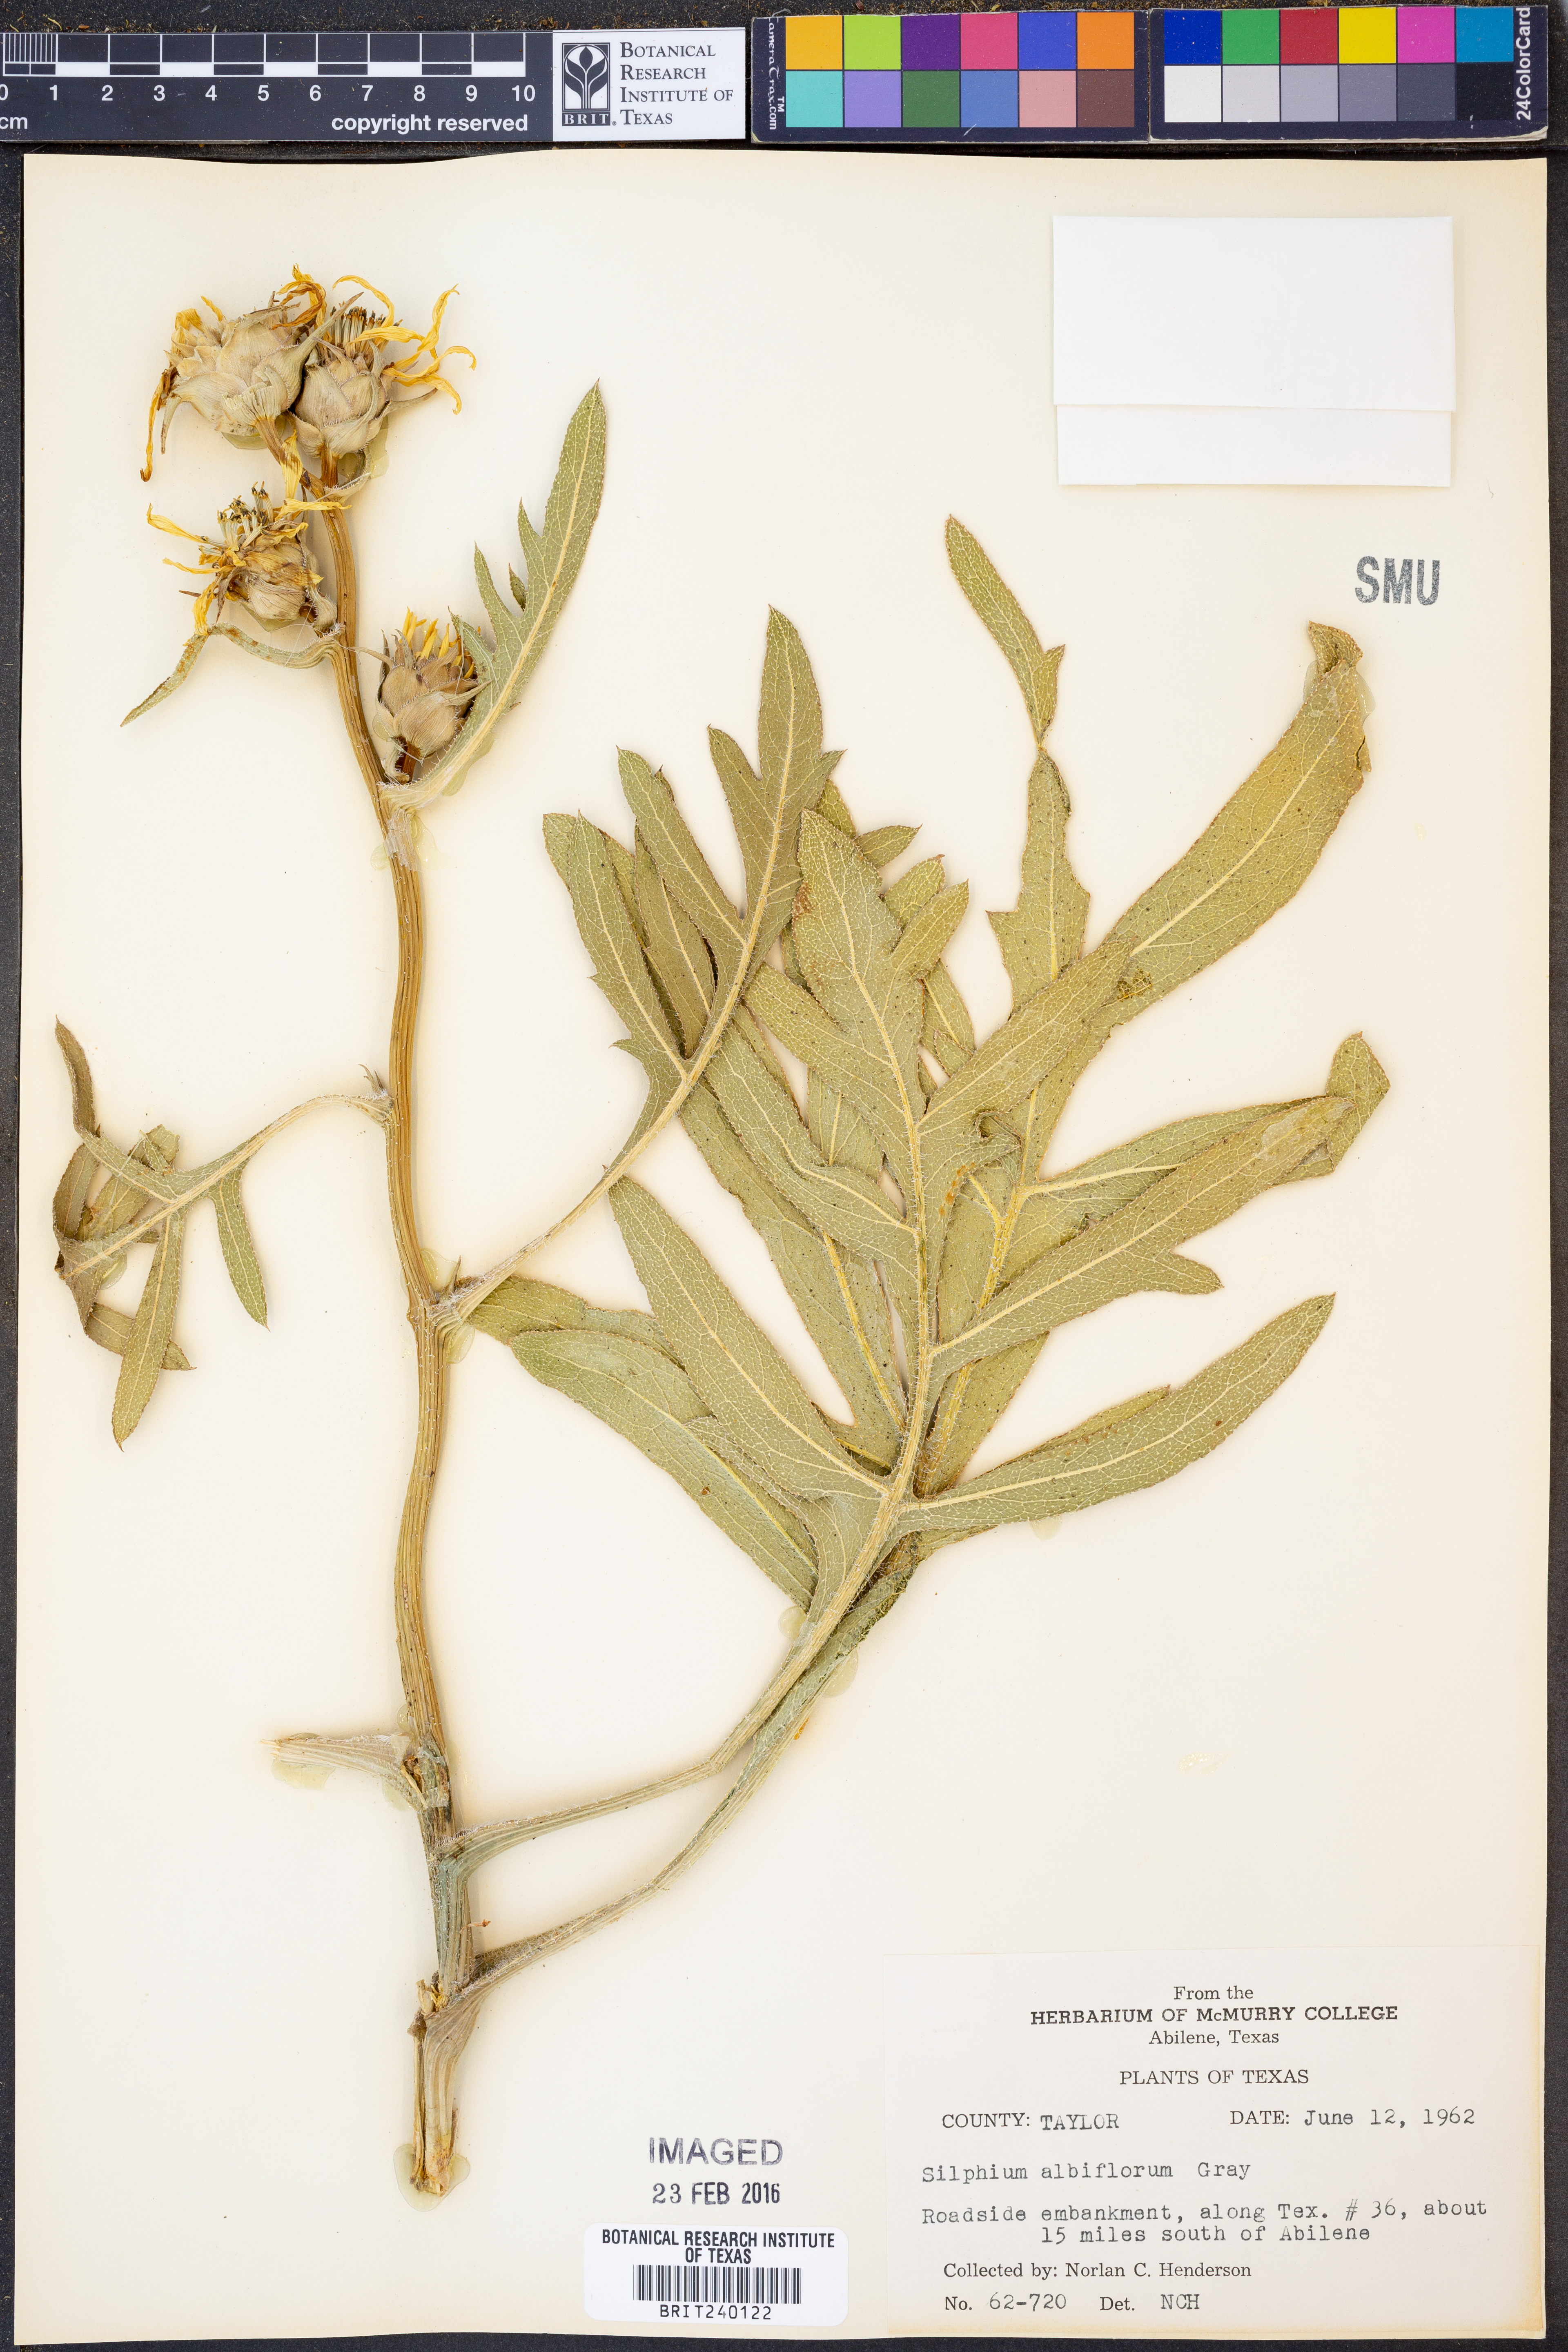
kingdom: Plantae
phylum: Tracheophyta
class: Magnoliopsida
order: Asterales
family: Asteraceae
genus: Silphium
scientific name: Silphium albiflorum
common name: White rosinweed
